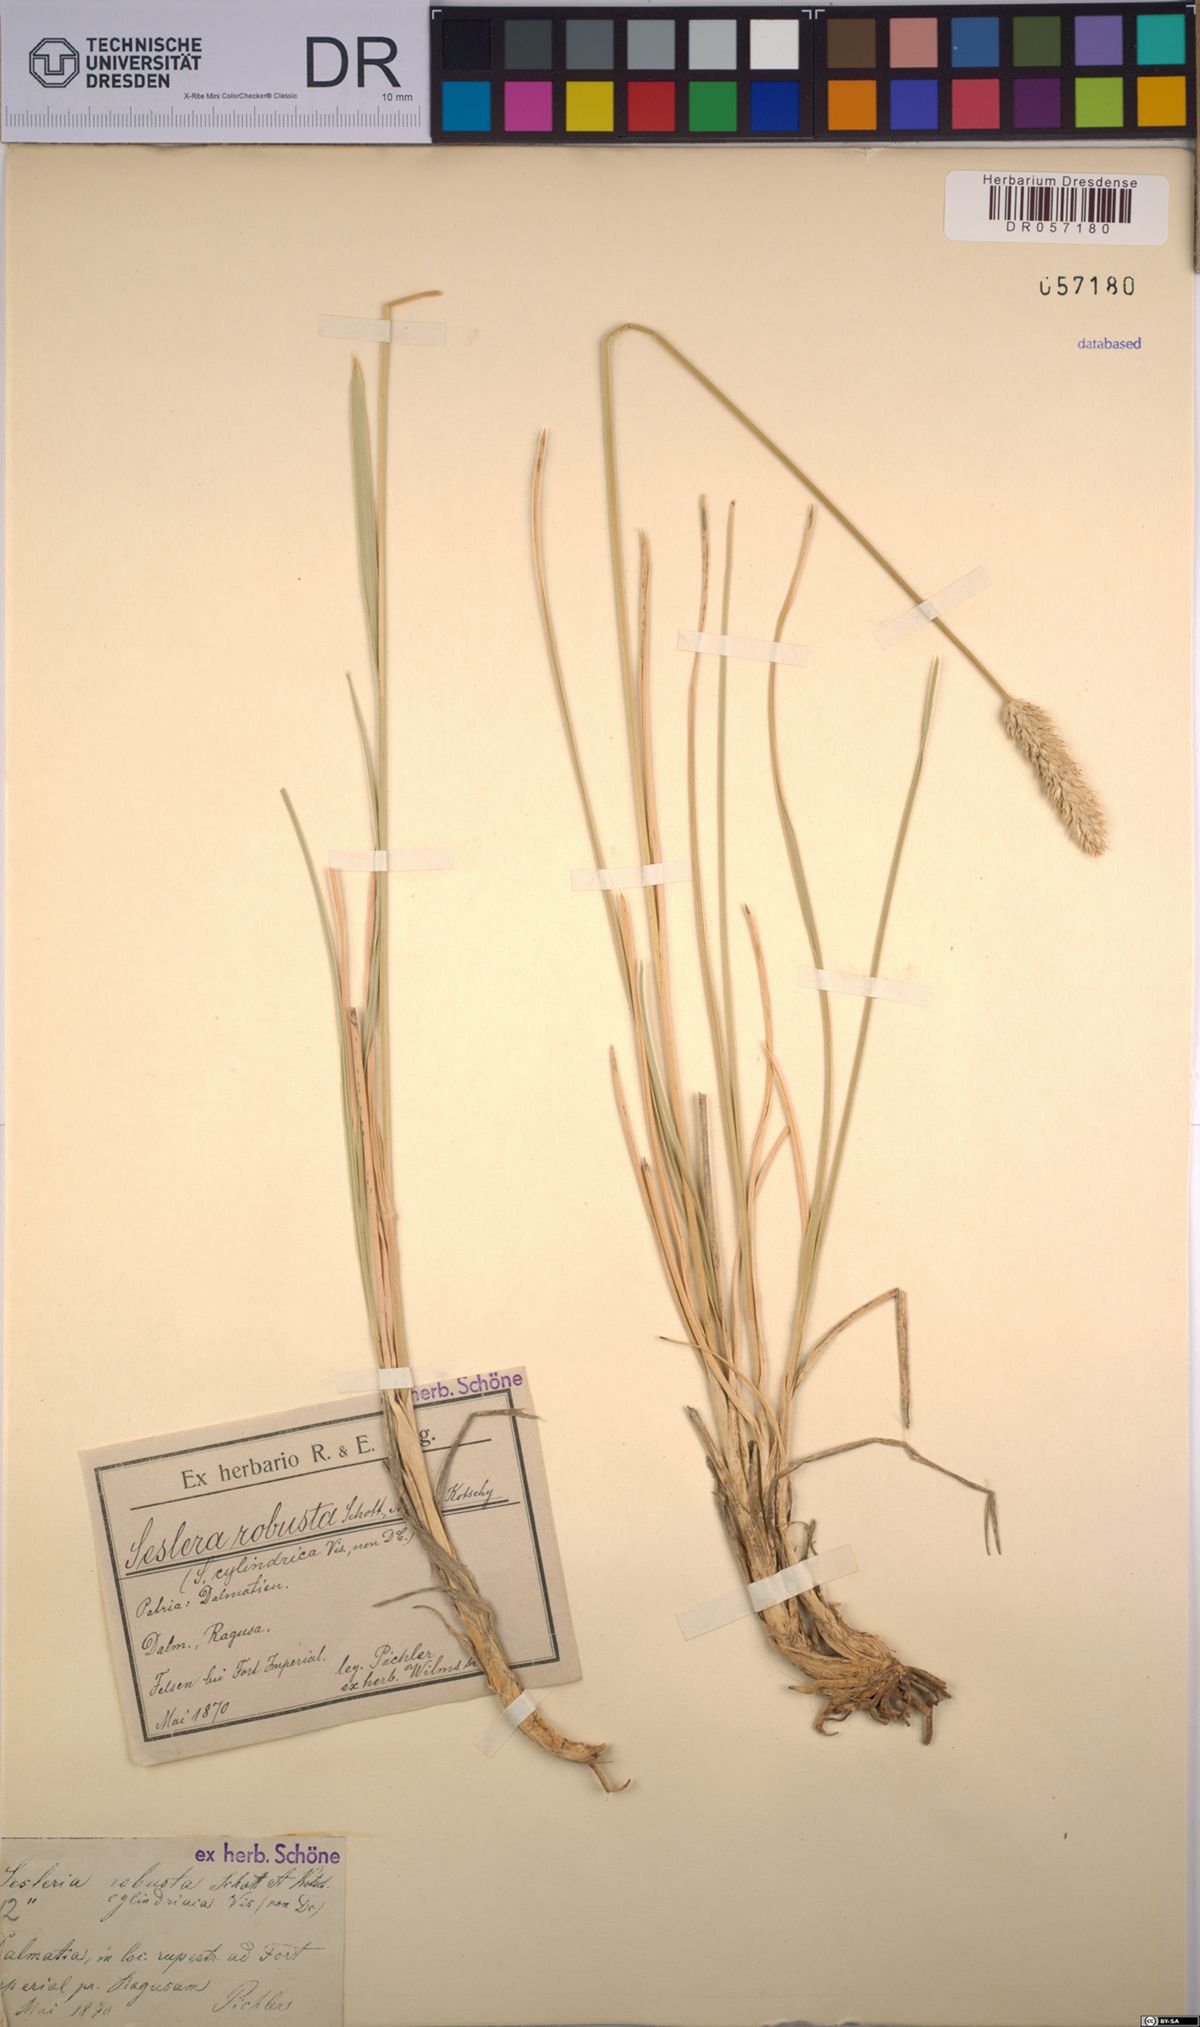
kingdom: Plantae
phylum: Tracheophyta
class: Liliopsida
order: Poales
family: Poaceae
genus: Sesleria
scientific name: Sesleria robusta
